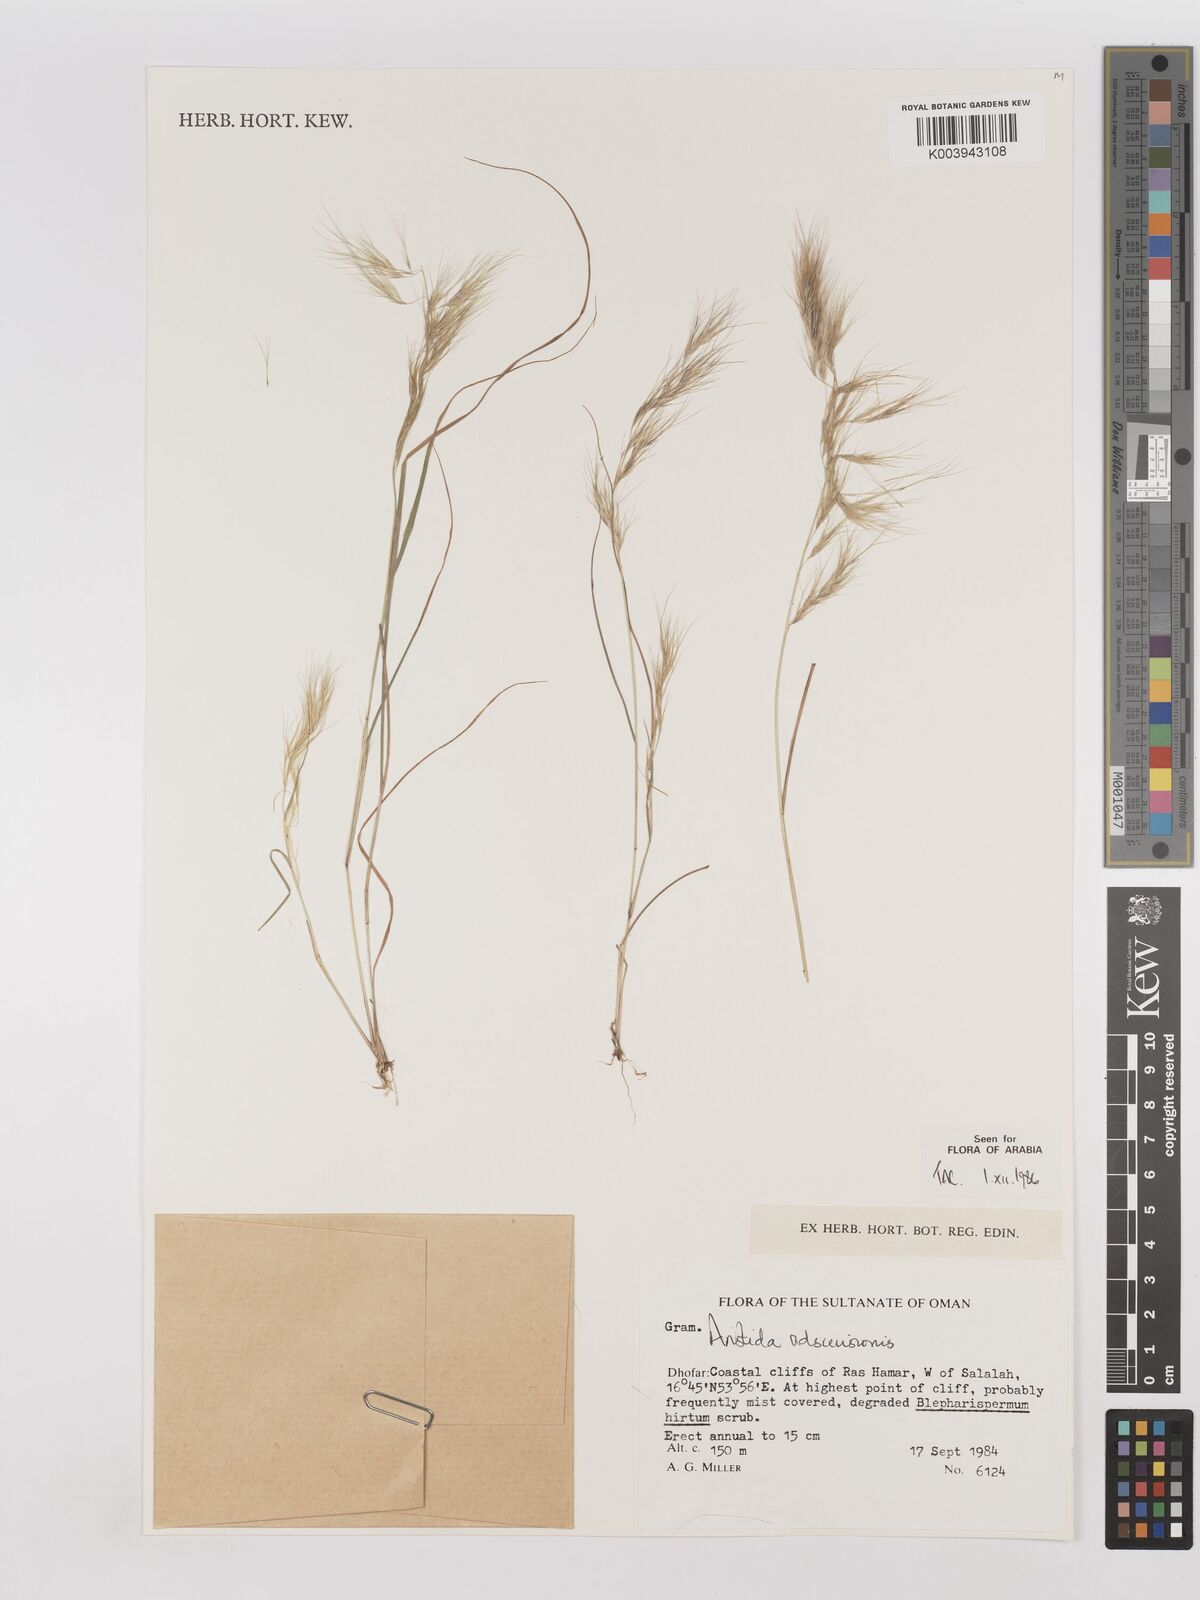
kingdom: Plantae
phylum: Tracheophyta
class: Liliopsida
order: Poales
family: Poaceae
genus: Aristida
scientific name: Aristida adscensionis
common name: Sixweeks threeawn
